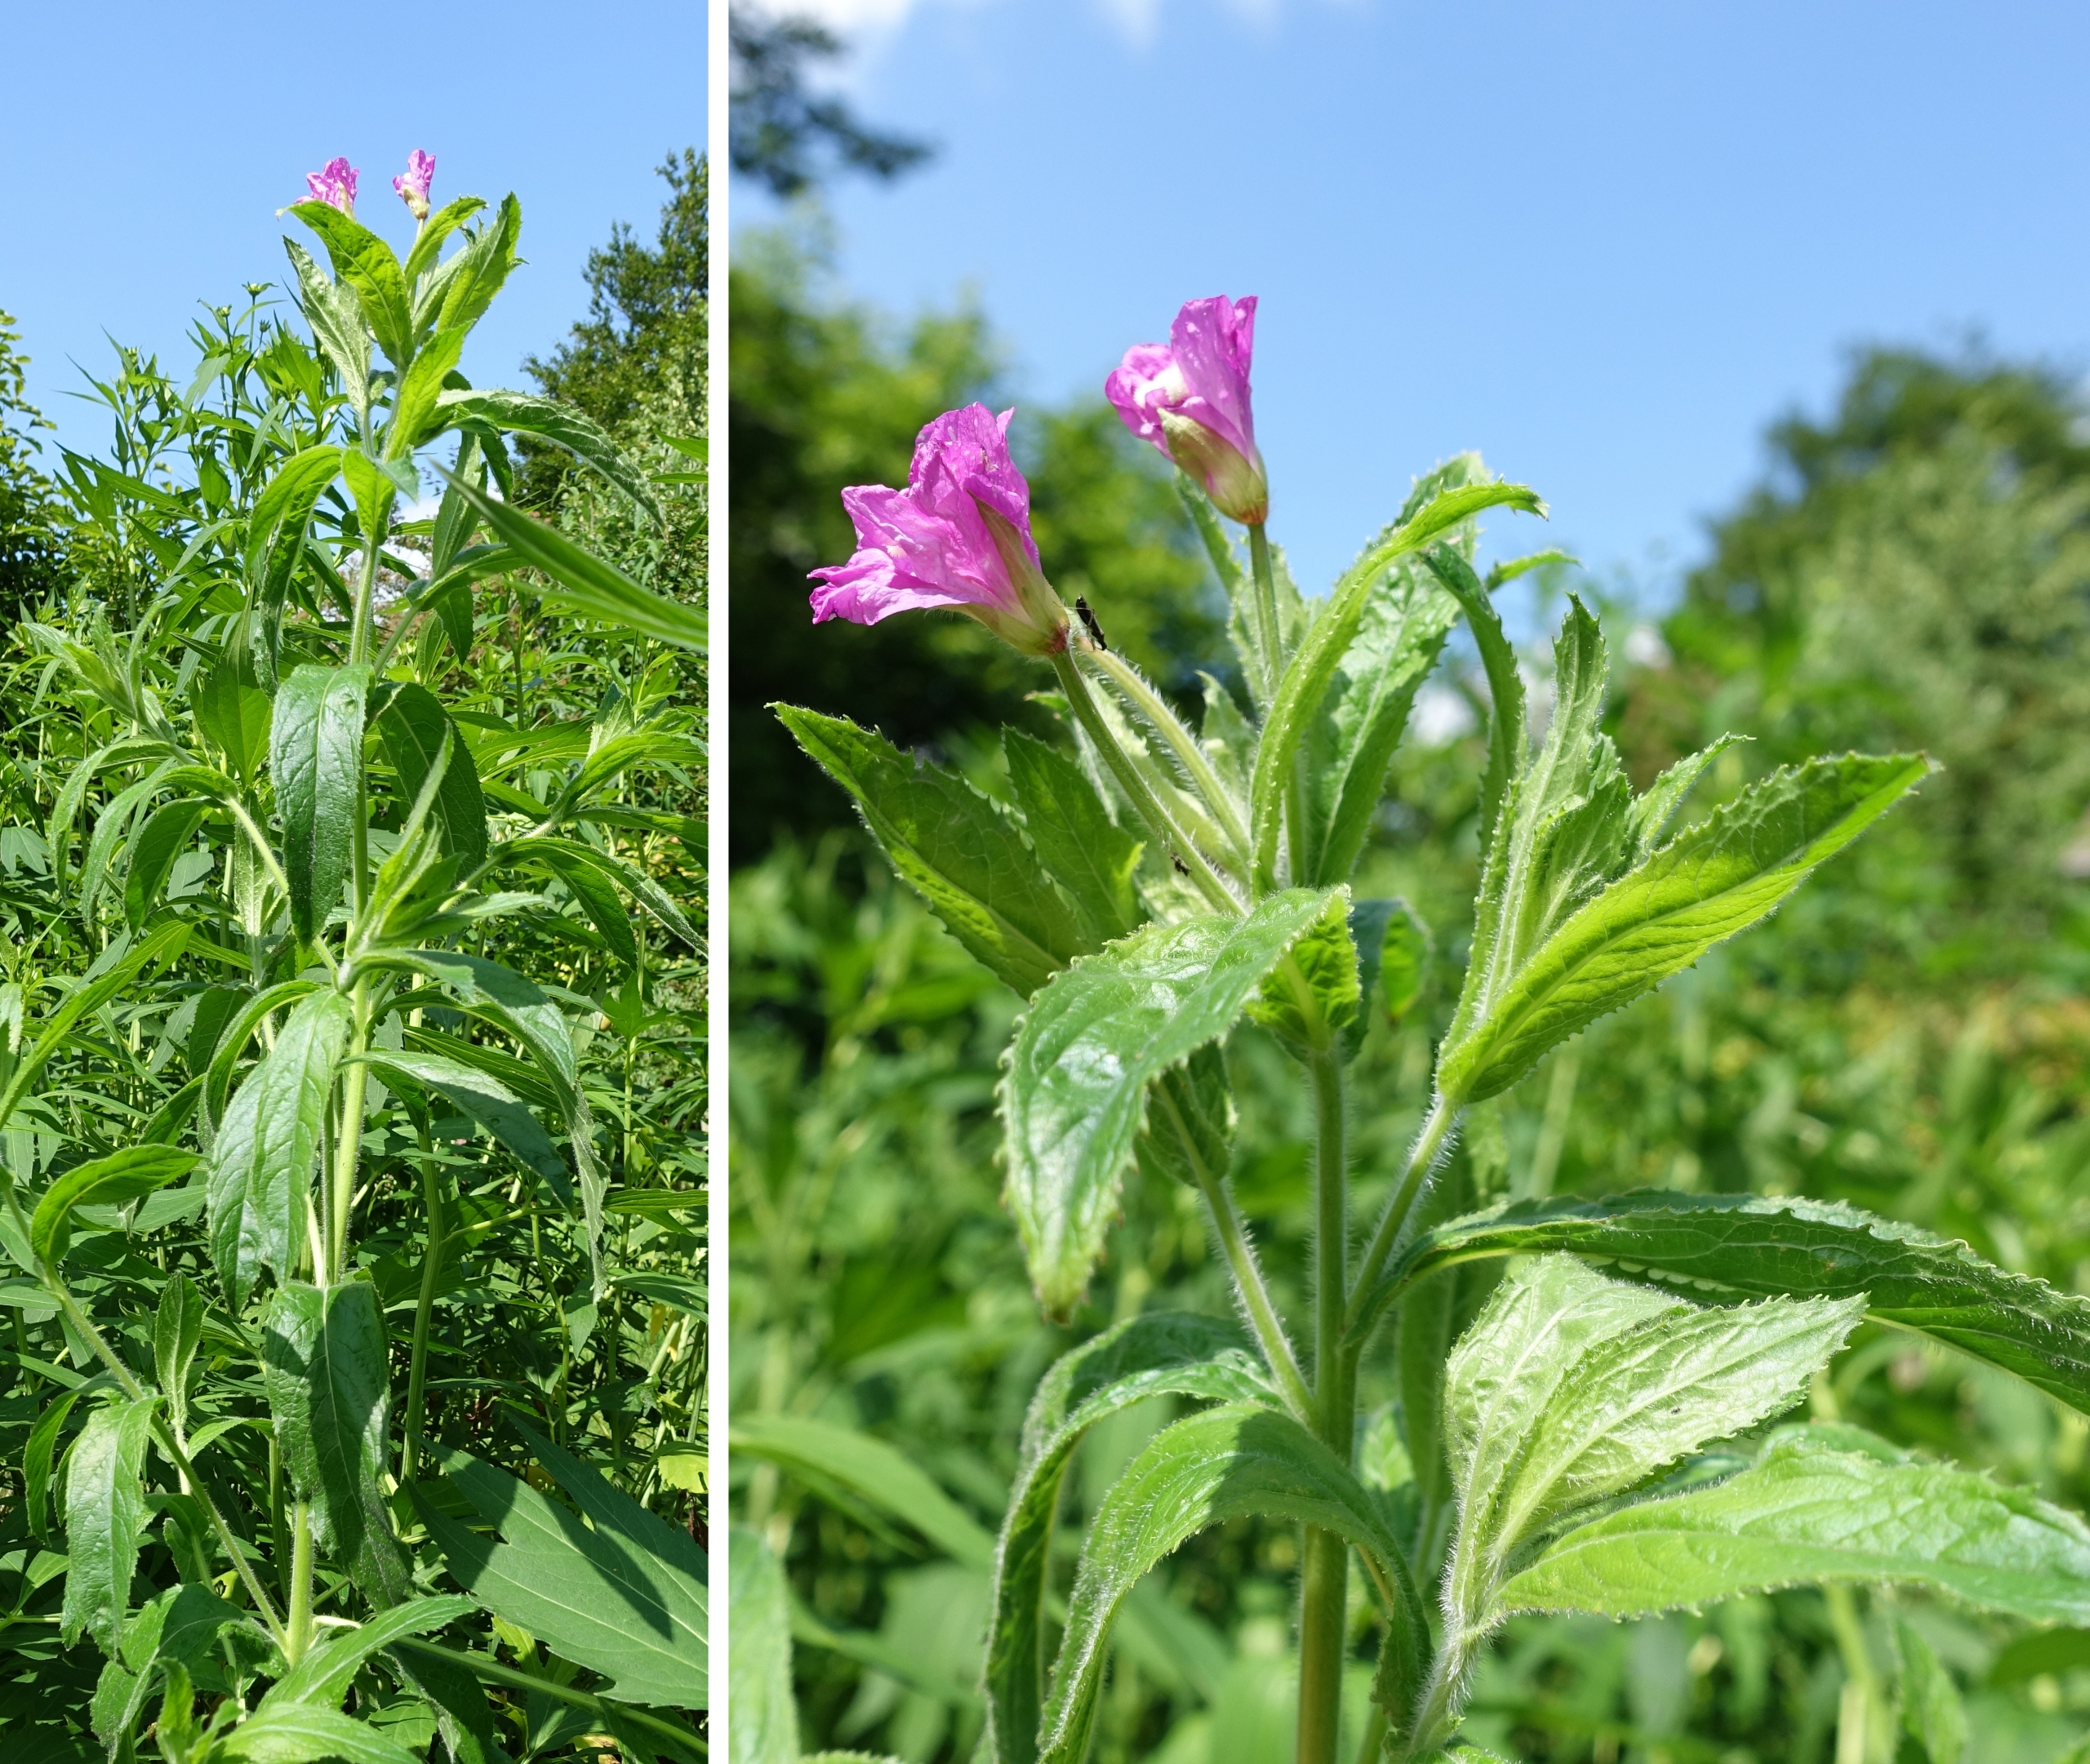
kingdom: Plantae
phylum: Tracheophyta
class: Magnoliopsida
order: Myrtales
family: Onagraceae
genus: Epilobium
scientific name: Epilobium hirsutum
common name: Lådden dueurt
